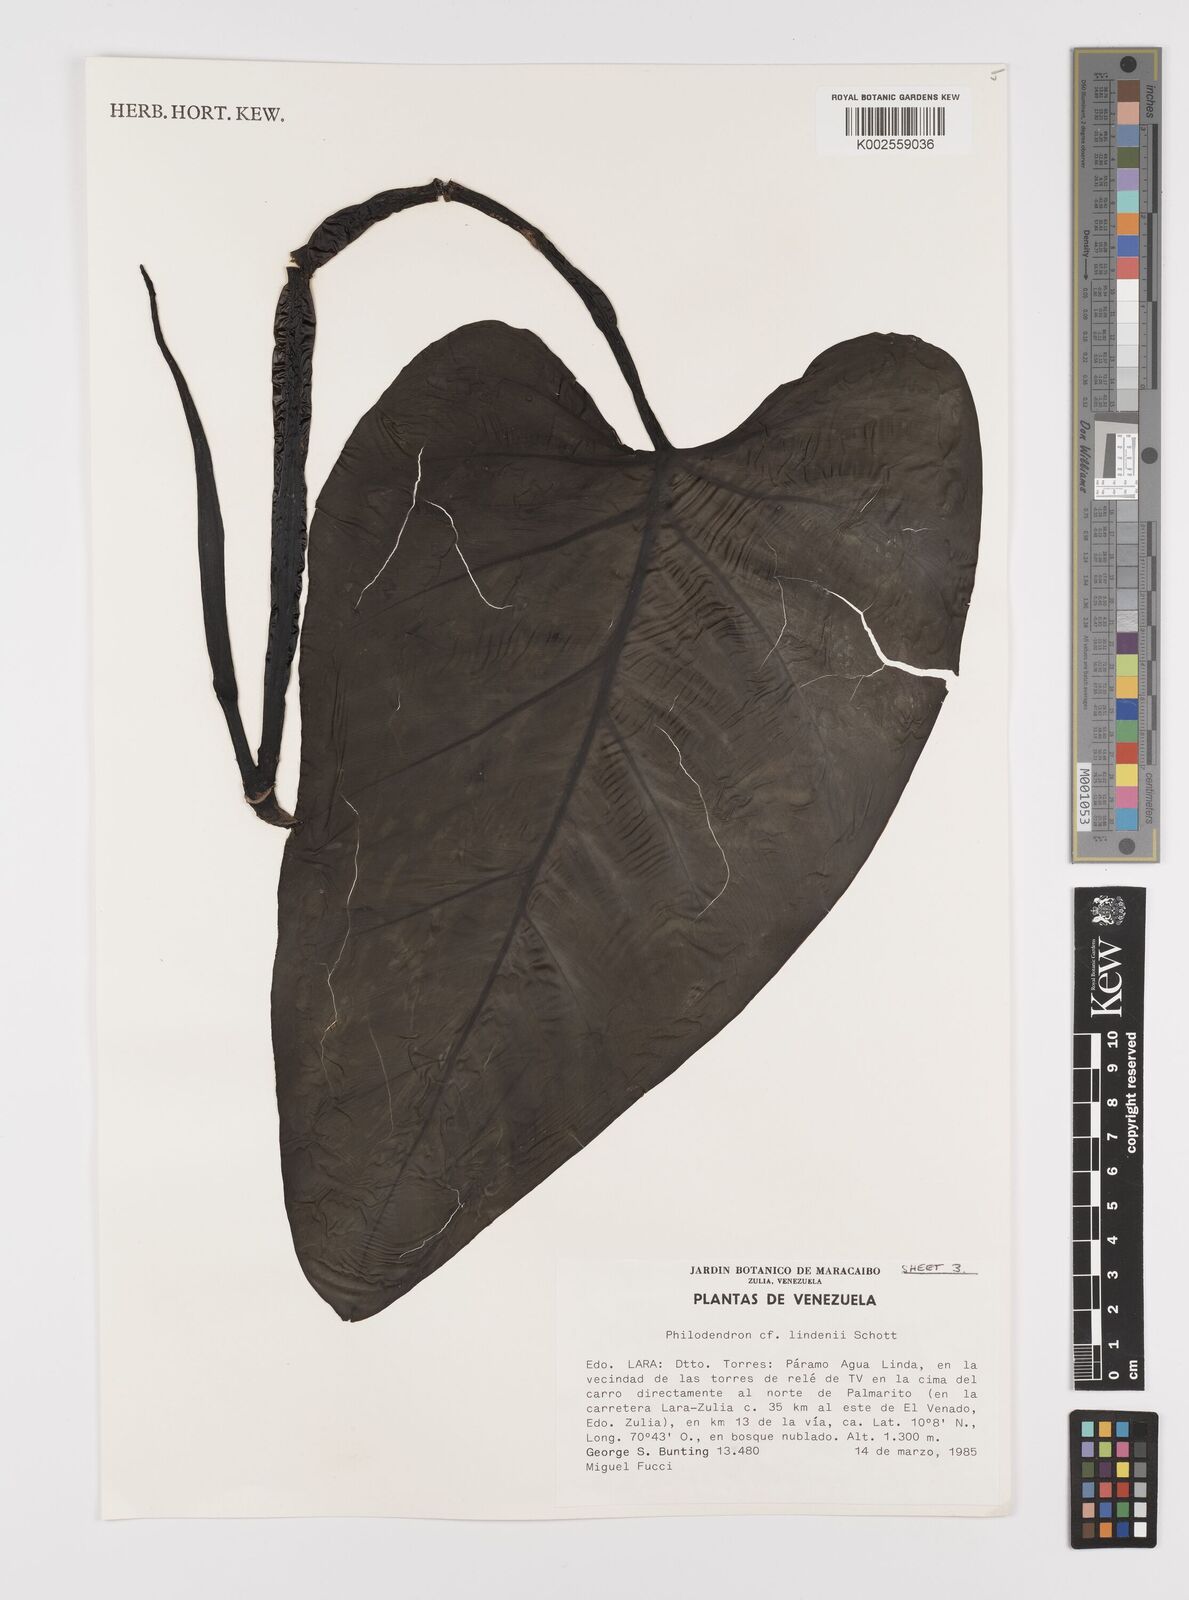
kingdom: Plantae
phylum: Tracheophyta
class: Liliopsida
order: Alismatales
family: Araceae
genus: Philodendron
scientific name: Philodendron lindenii
